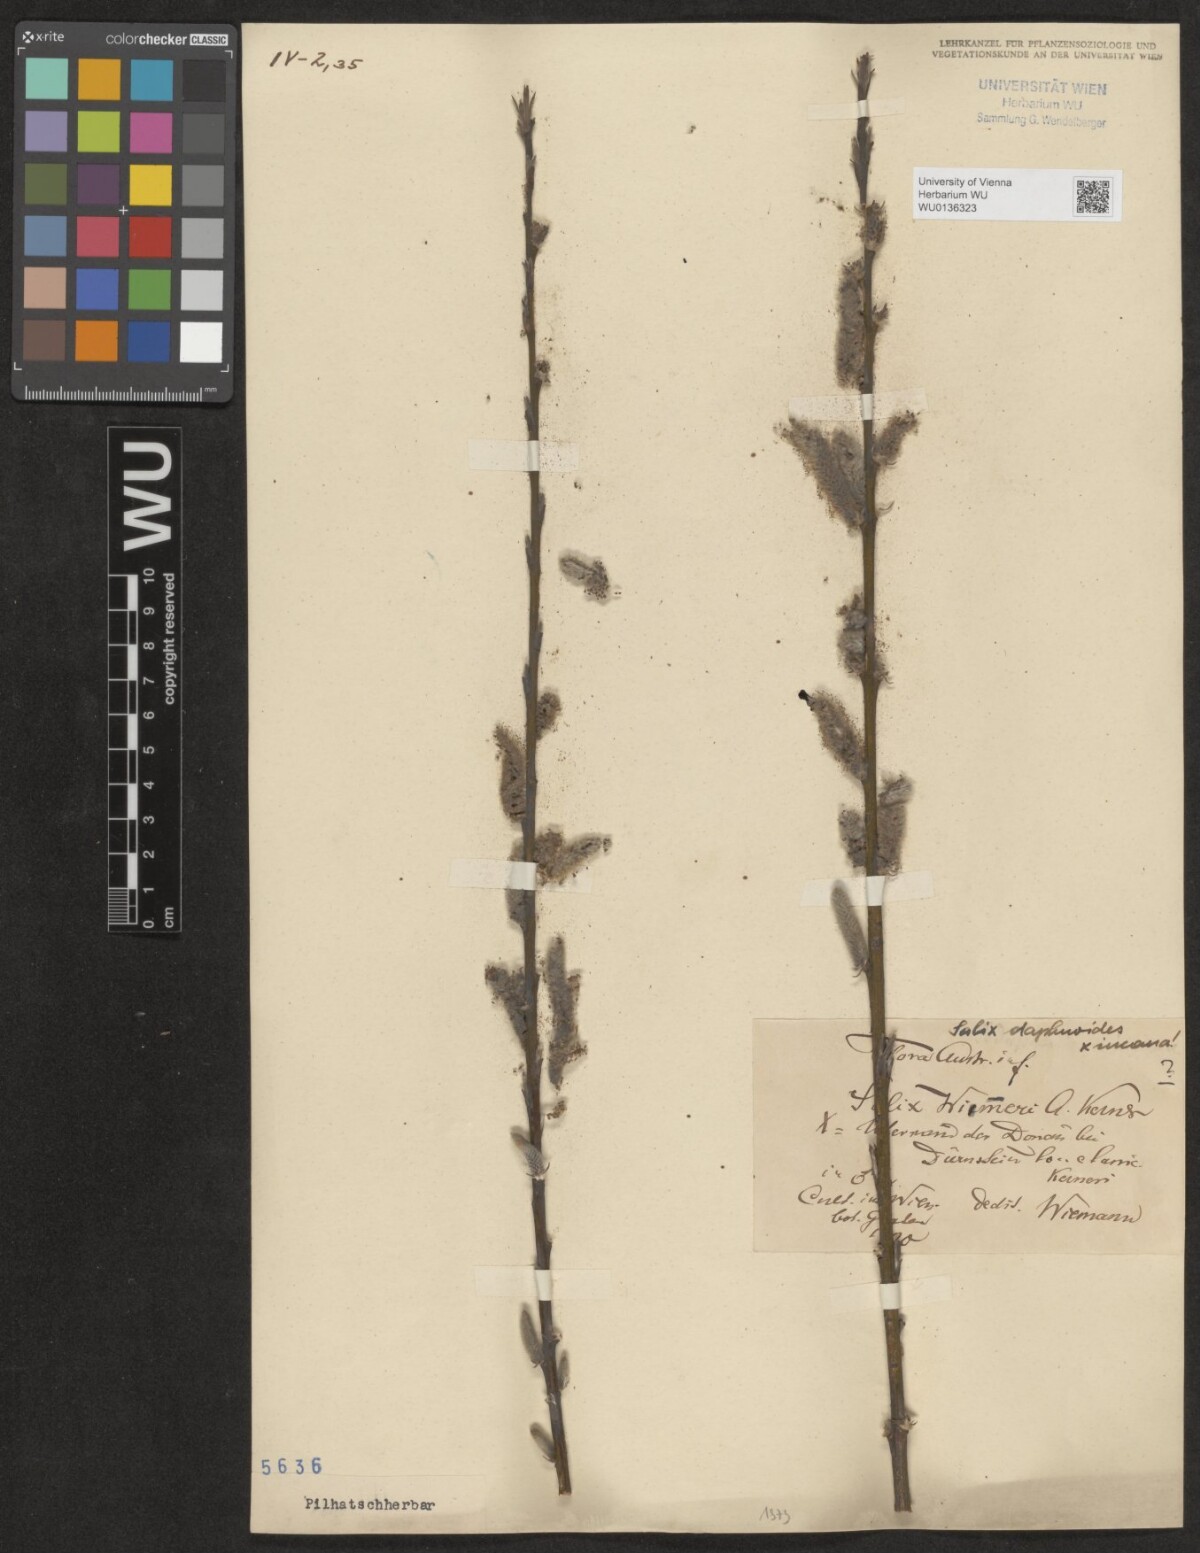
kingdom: Plantae
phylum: Tracheophyta
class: Magnoliopsida
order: Malpighiales
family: Salicaceae
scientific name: Salicaceae
